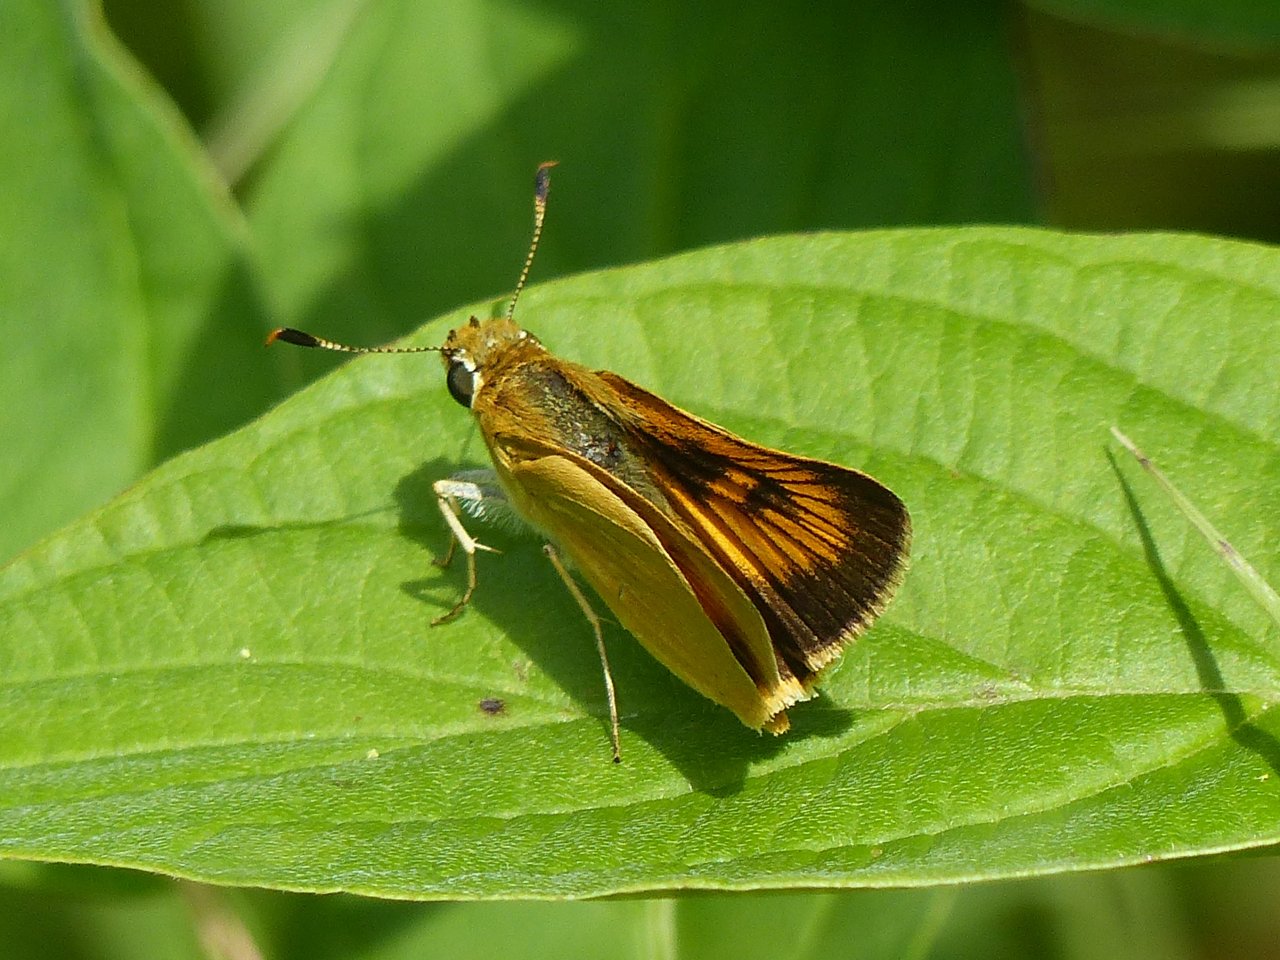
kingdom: Animalia
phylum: Arthropoda
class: Insecta
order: Lepidoptera
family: Hesperiidae
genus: Atrytone
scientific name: Atrytone delaware
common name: Delaware Skipper
